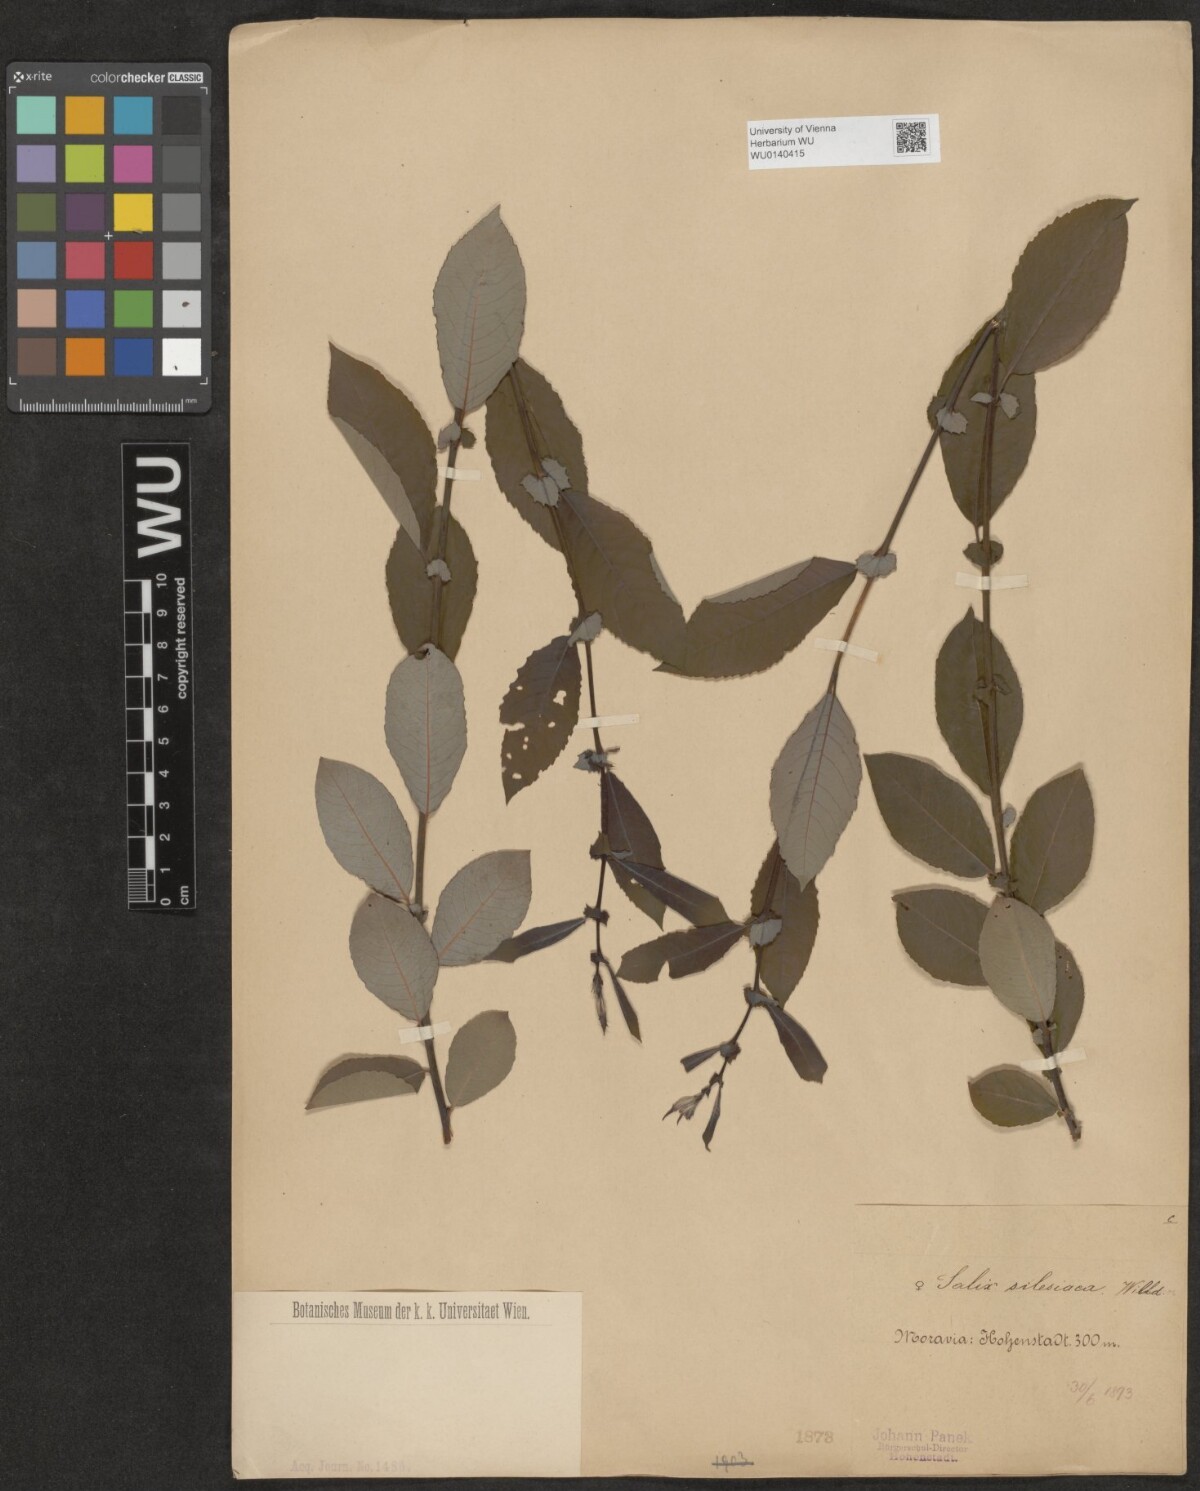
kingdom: Plantae
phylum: Tracheophyta
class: Magnoliopsida
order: Malpighiales
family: Salicaceae
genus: Salix
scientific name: Salix silesiaca
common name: Silesian willow
